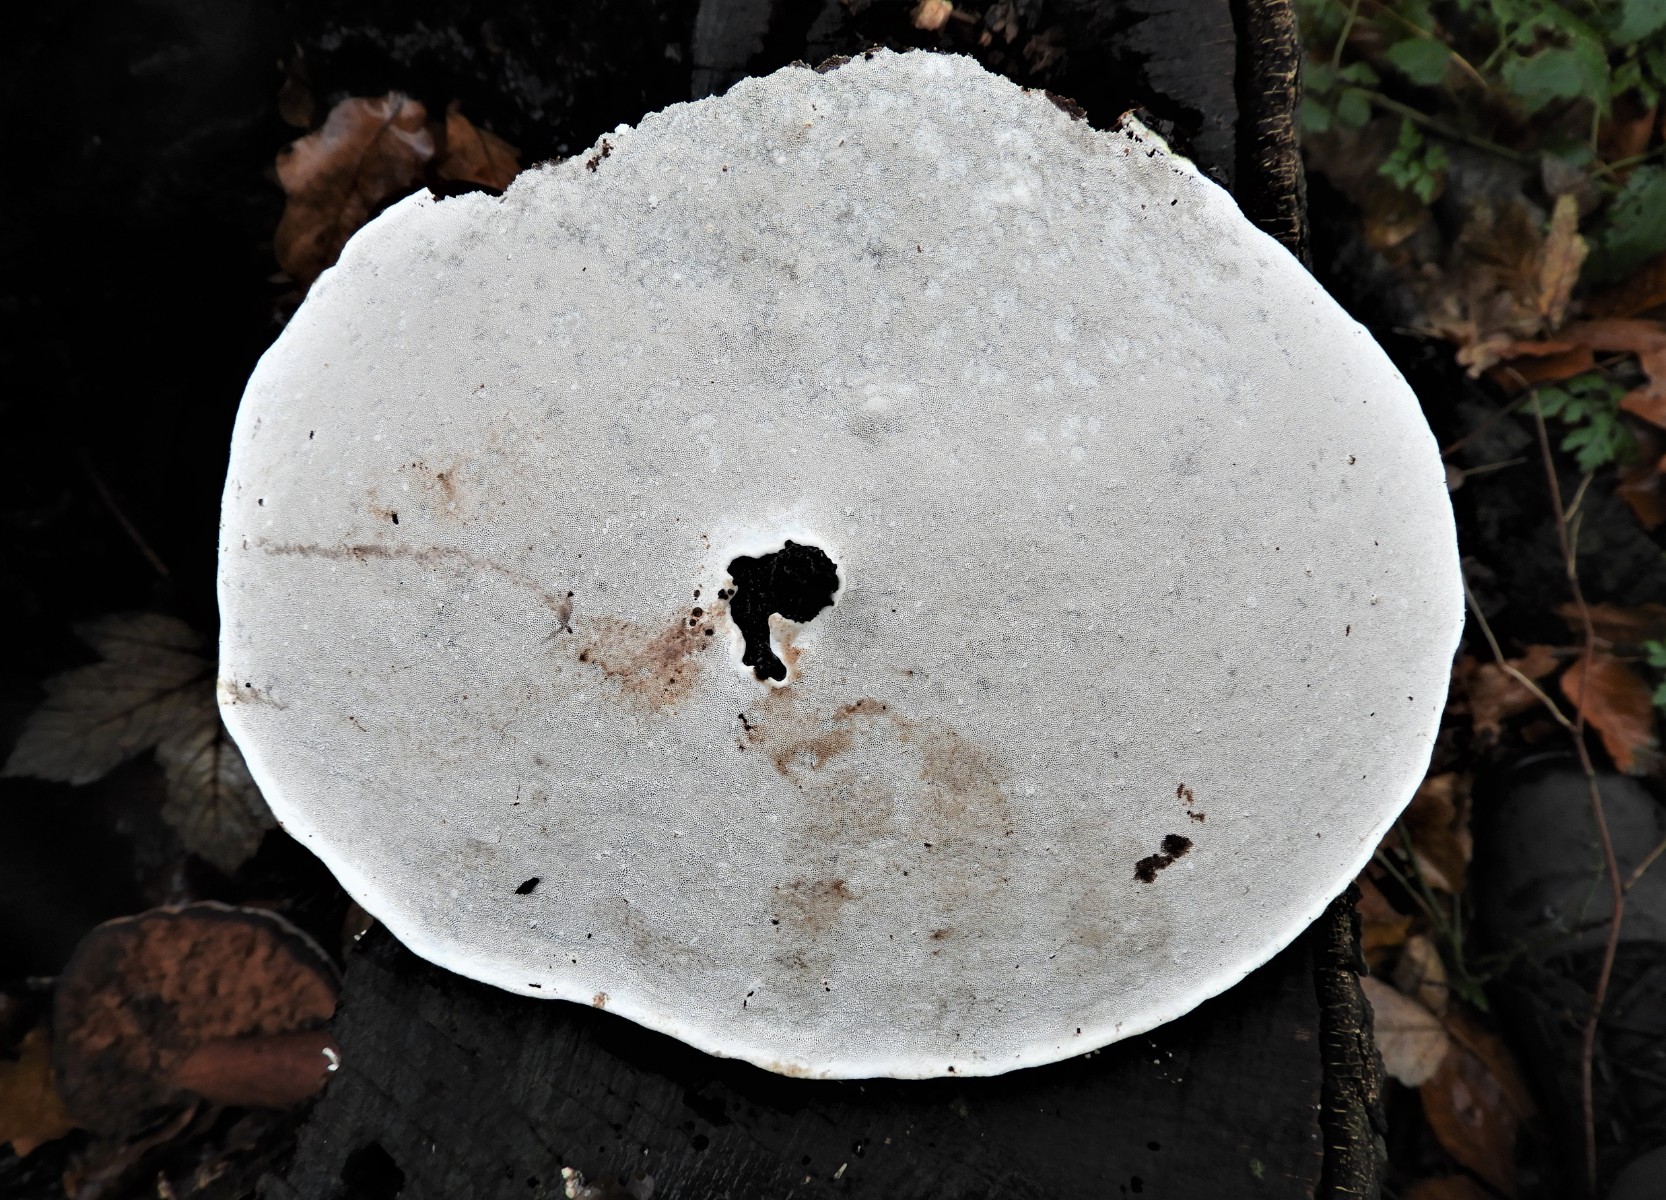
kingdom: Fungi
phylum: Basidiomycota
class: Agaricomycetes
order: Polyporales
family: Polyporaceae
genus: Ganoderma
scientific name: Ganoderma applanatum
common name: flad lakporesvamp
